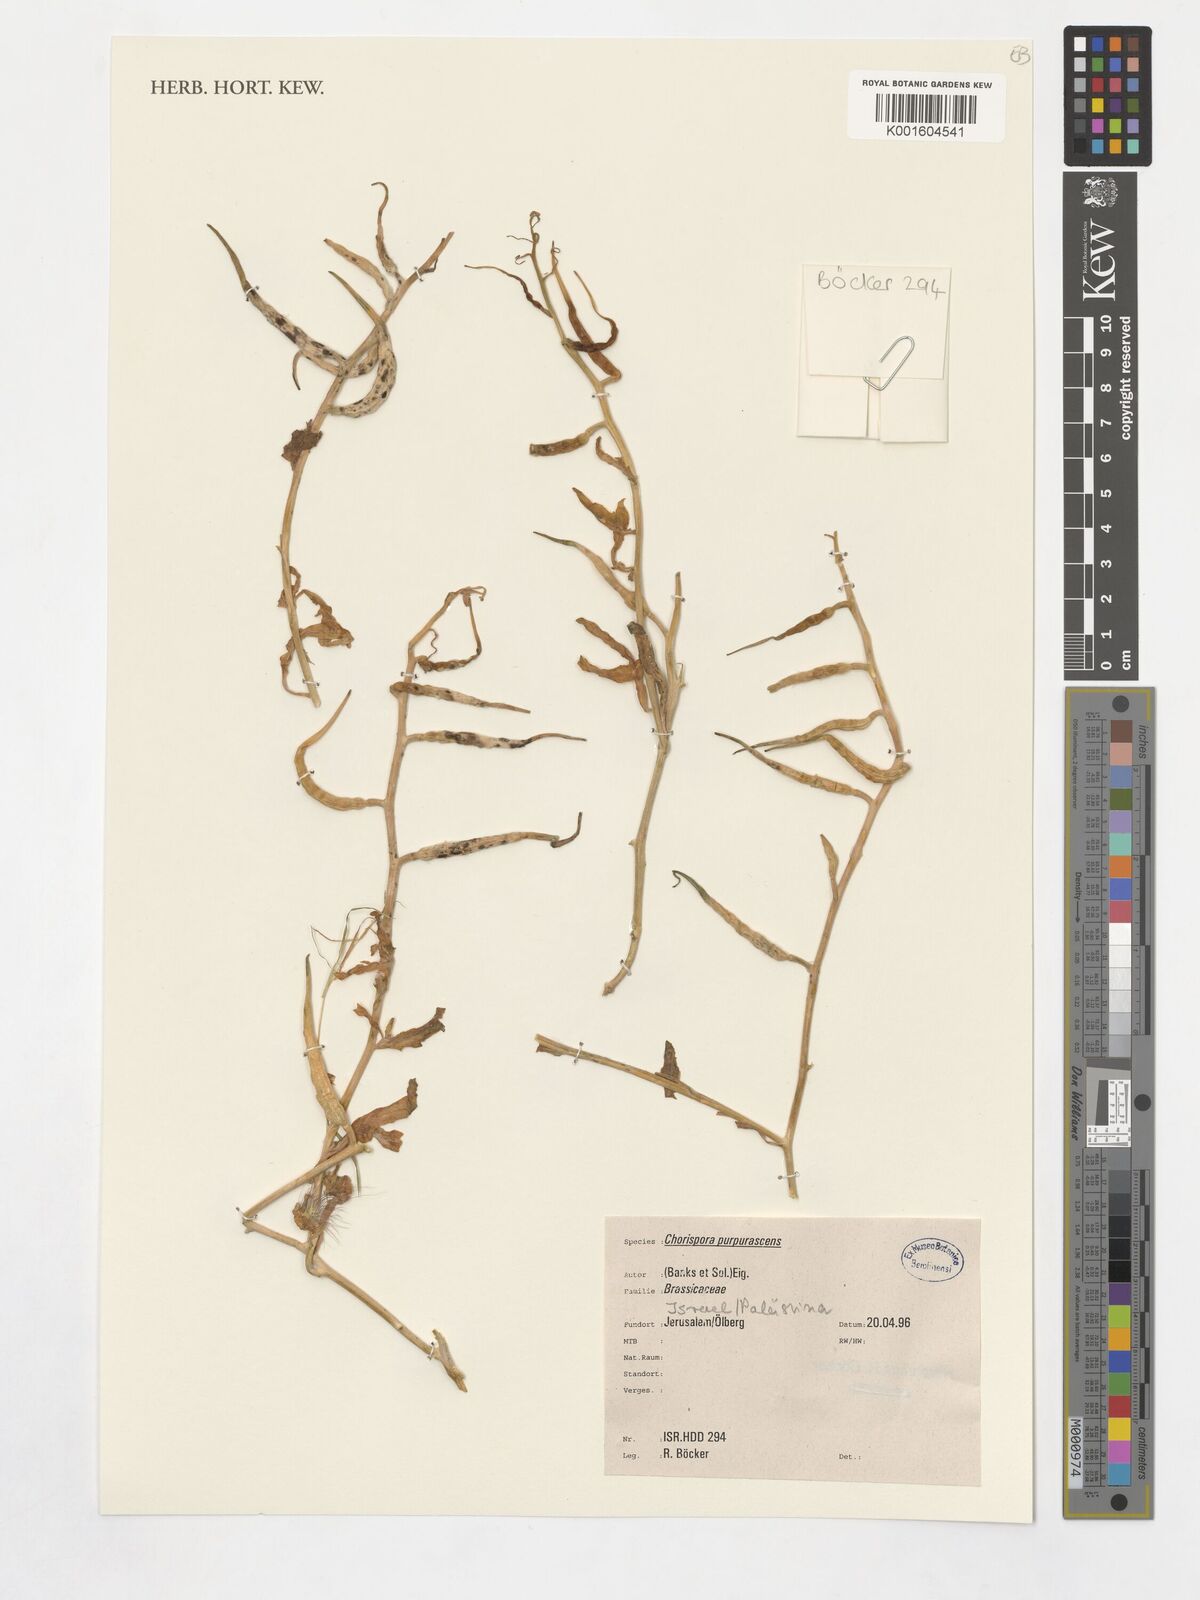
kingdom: Plantae
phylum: Tracheophyta
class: Magnoliopsida
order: Brassicales
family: Brassicaceae
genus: Chorispora
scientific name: Chorispora purpurascens
